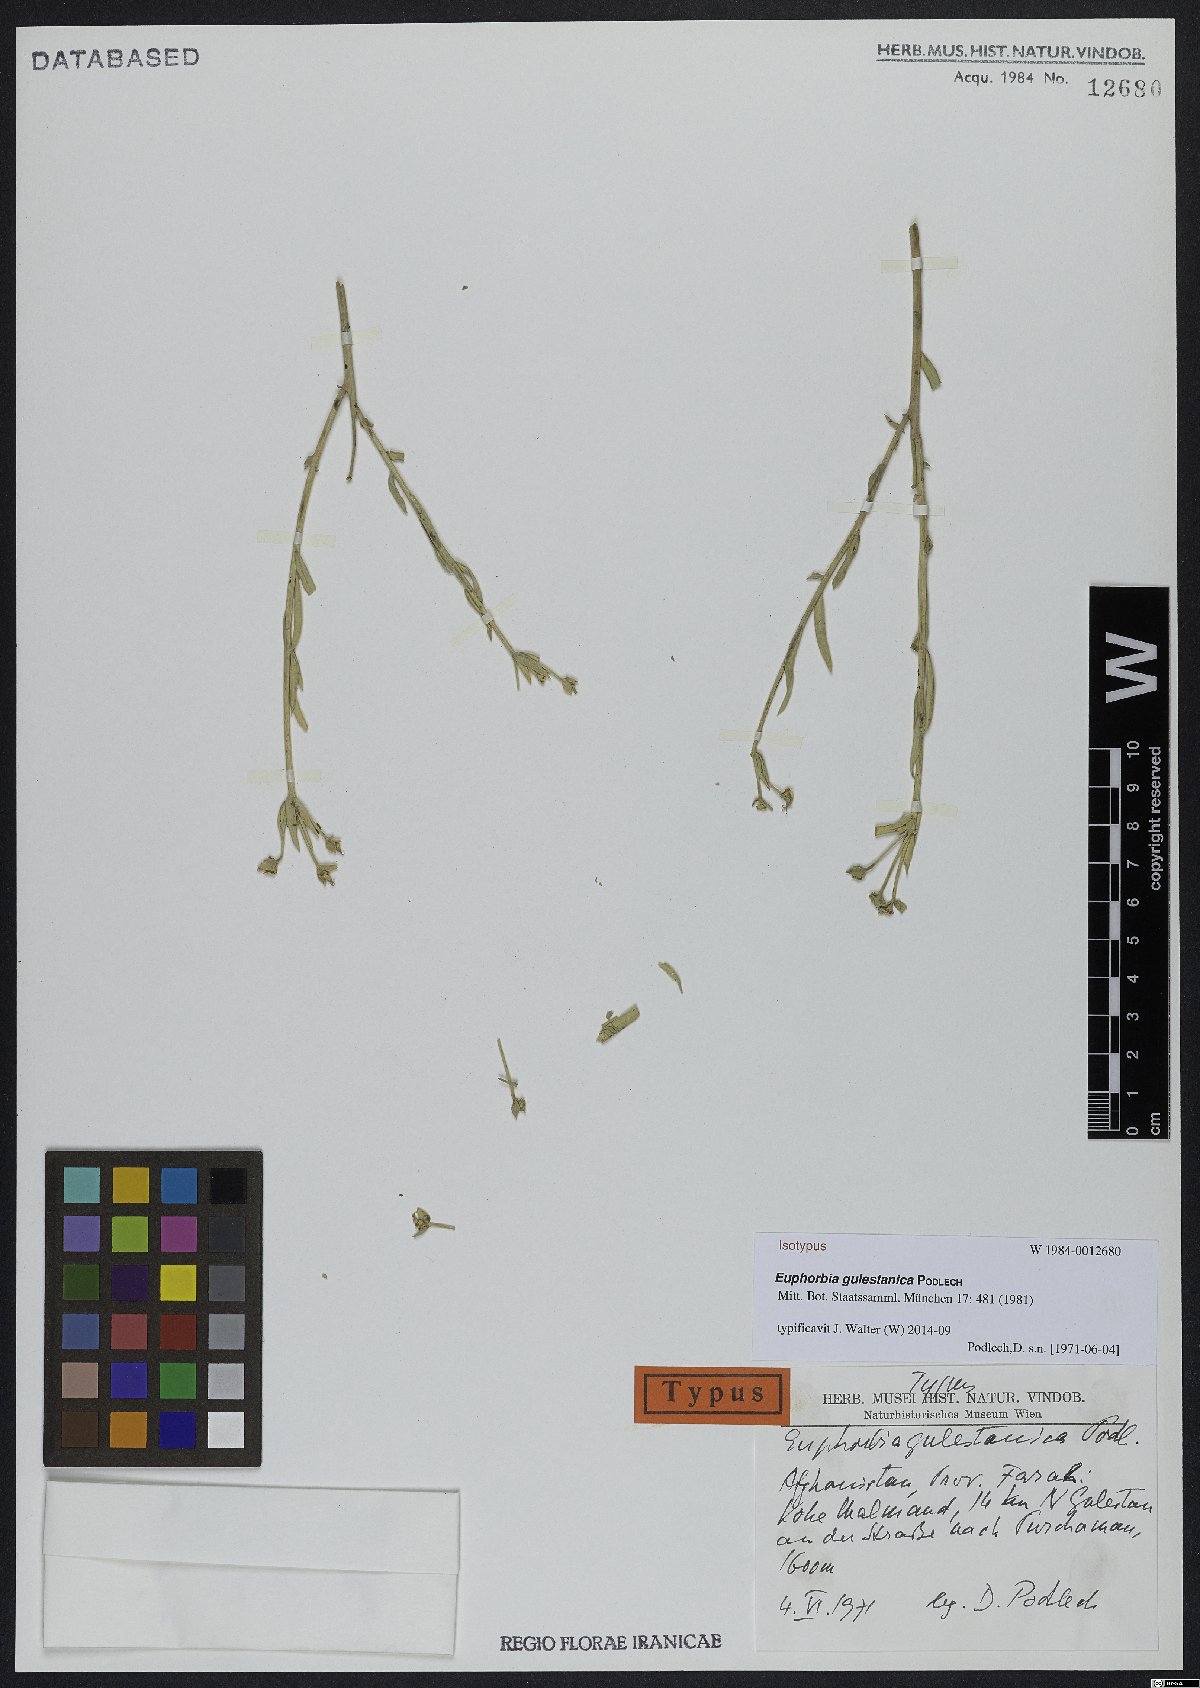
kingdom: Plantae
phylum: Tracheophyta
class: Magnoliopsida
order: Malpighiales
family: Euphorbiaceae
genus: Euphorbia
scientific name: Euphorbia gulestanica
